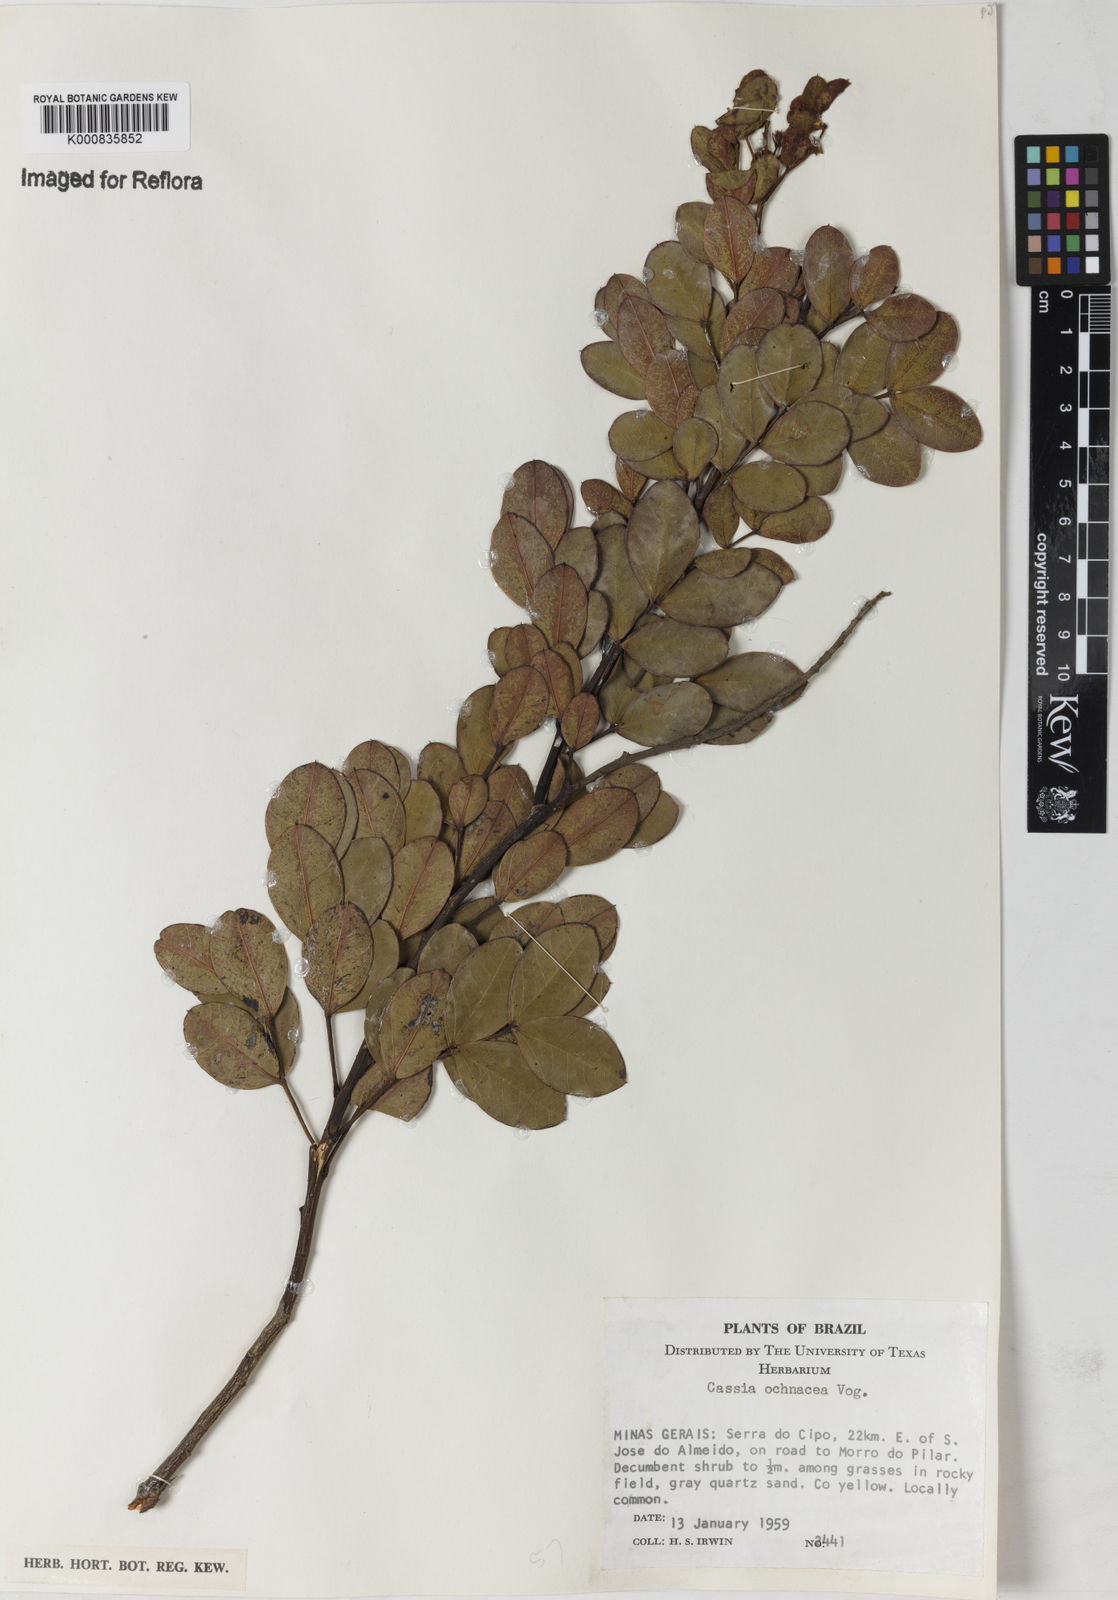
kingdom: Plantae
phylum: Tracheophyta
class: Magnoliopsida
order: Fabales
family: Fabaceae
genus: Chamaecrista
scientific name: Chamaecrista ochnacea
